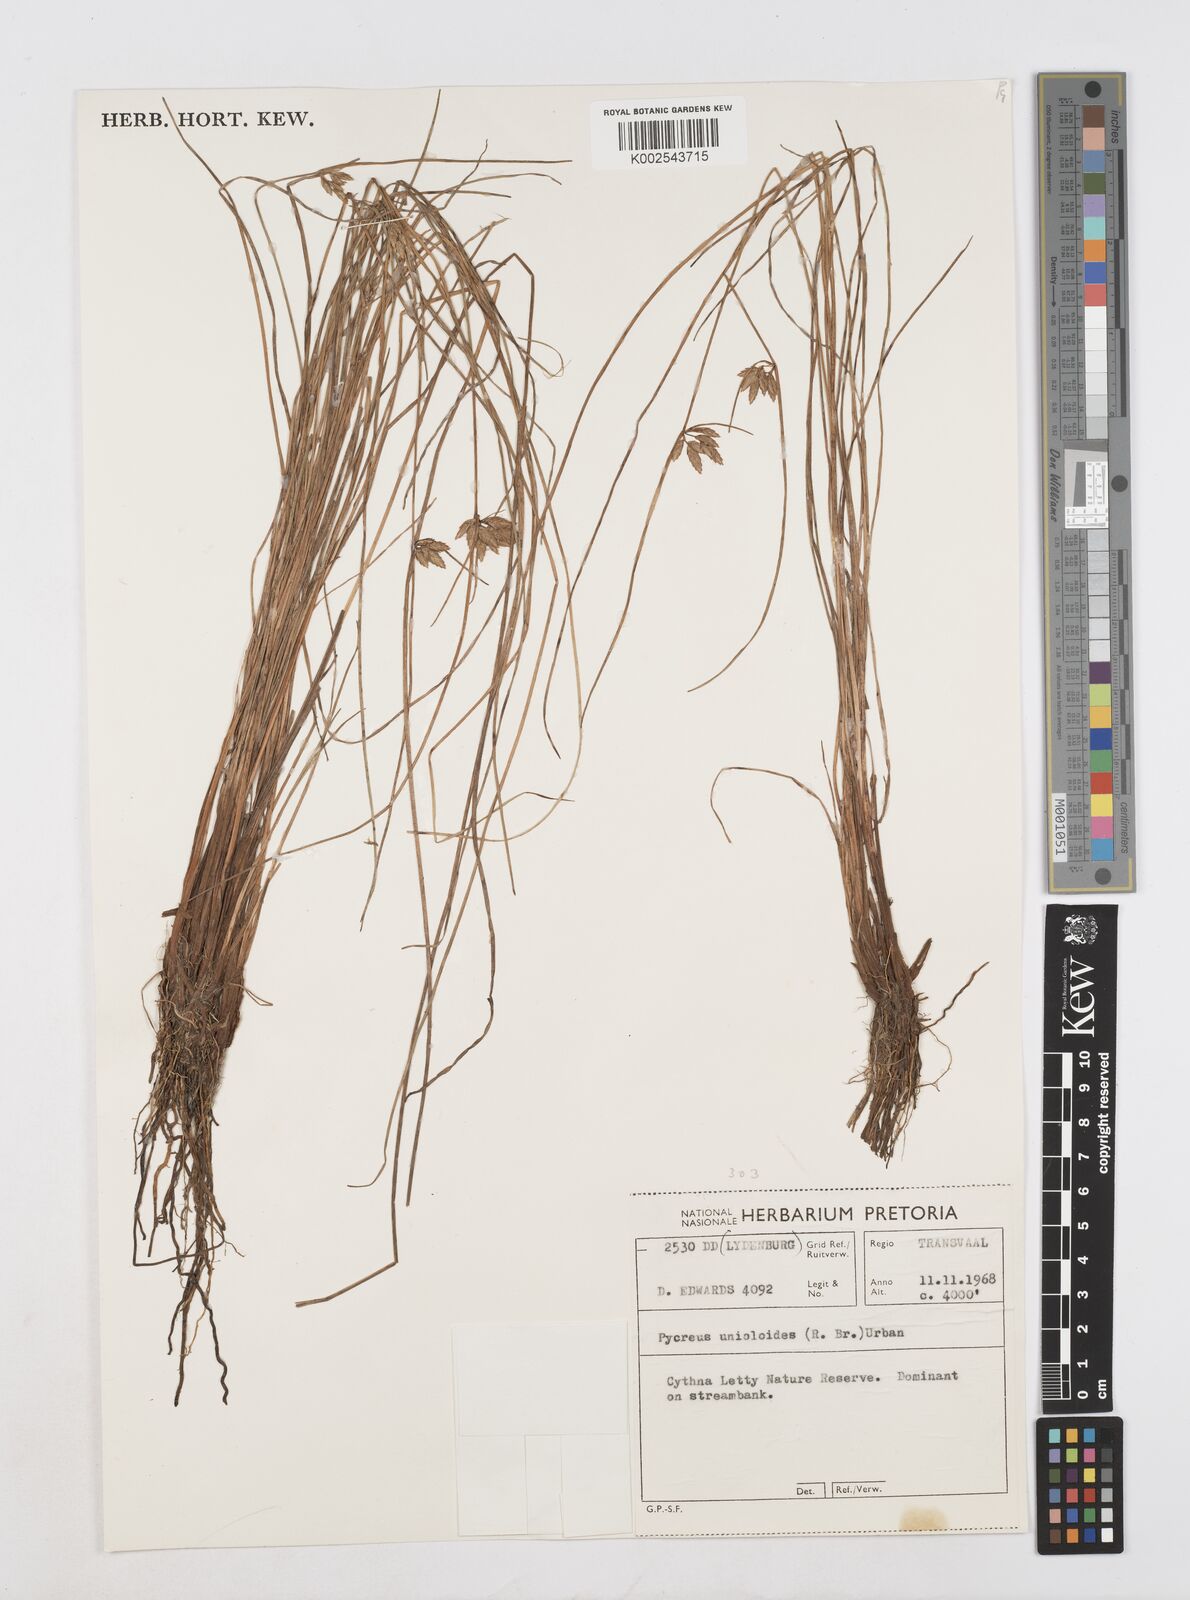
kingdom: Plantae
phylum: Tracheophyta
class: Liliopsida
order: Poales
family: Cyperaceae
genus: Cyperus
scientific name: Cyperus unioloides
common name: Uniola flatsedge
